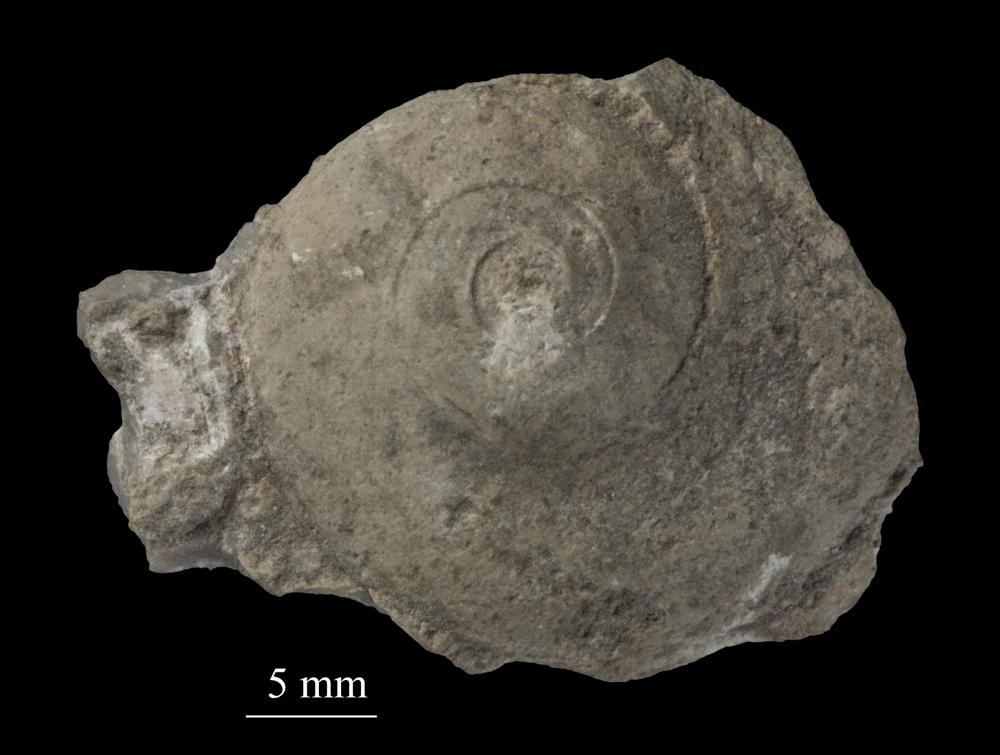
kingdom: Animalia
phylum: Mollusca
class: Gastropoda
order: Pleurotomariida
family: Eotomariidae
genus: Eotomaria
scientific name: Eotomaria Pleurotomaria notabilis
